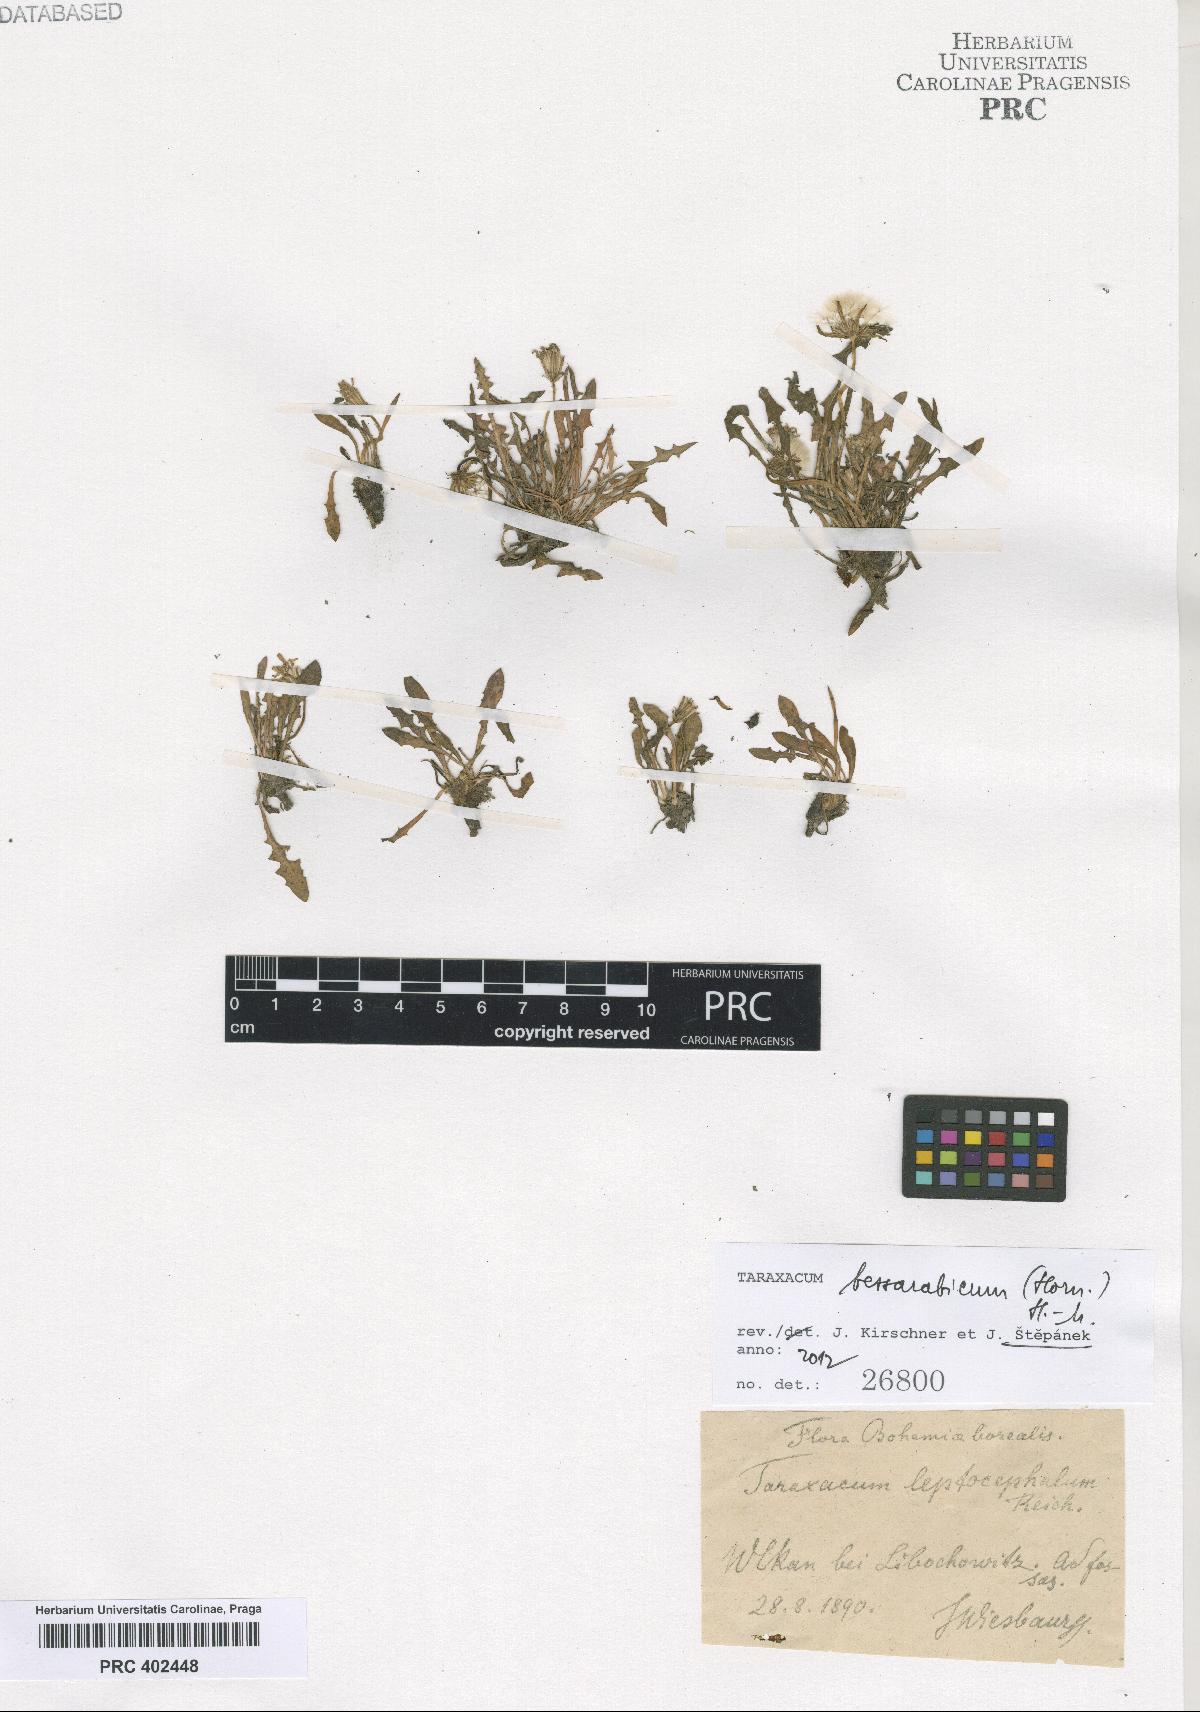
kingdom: Plantae
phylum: Tracheophyta
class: Magnoliopsida
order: Asterales
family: Asteraceae
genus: Taraxacum
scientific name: Taraxacum bessarabicum
